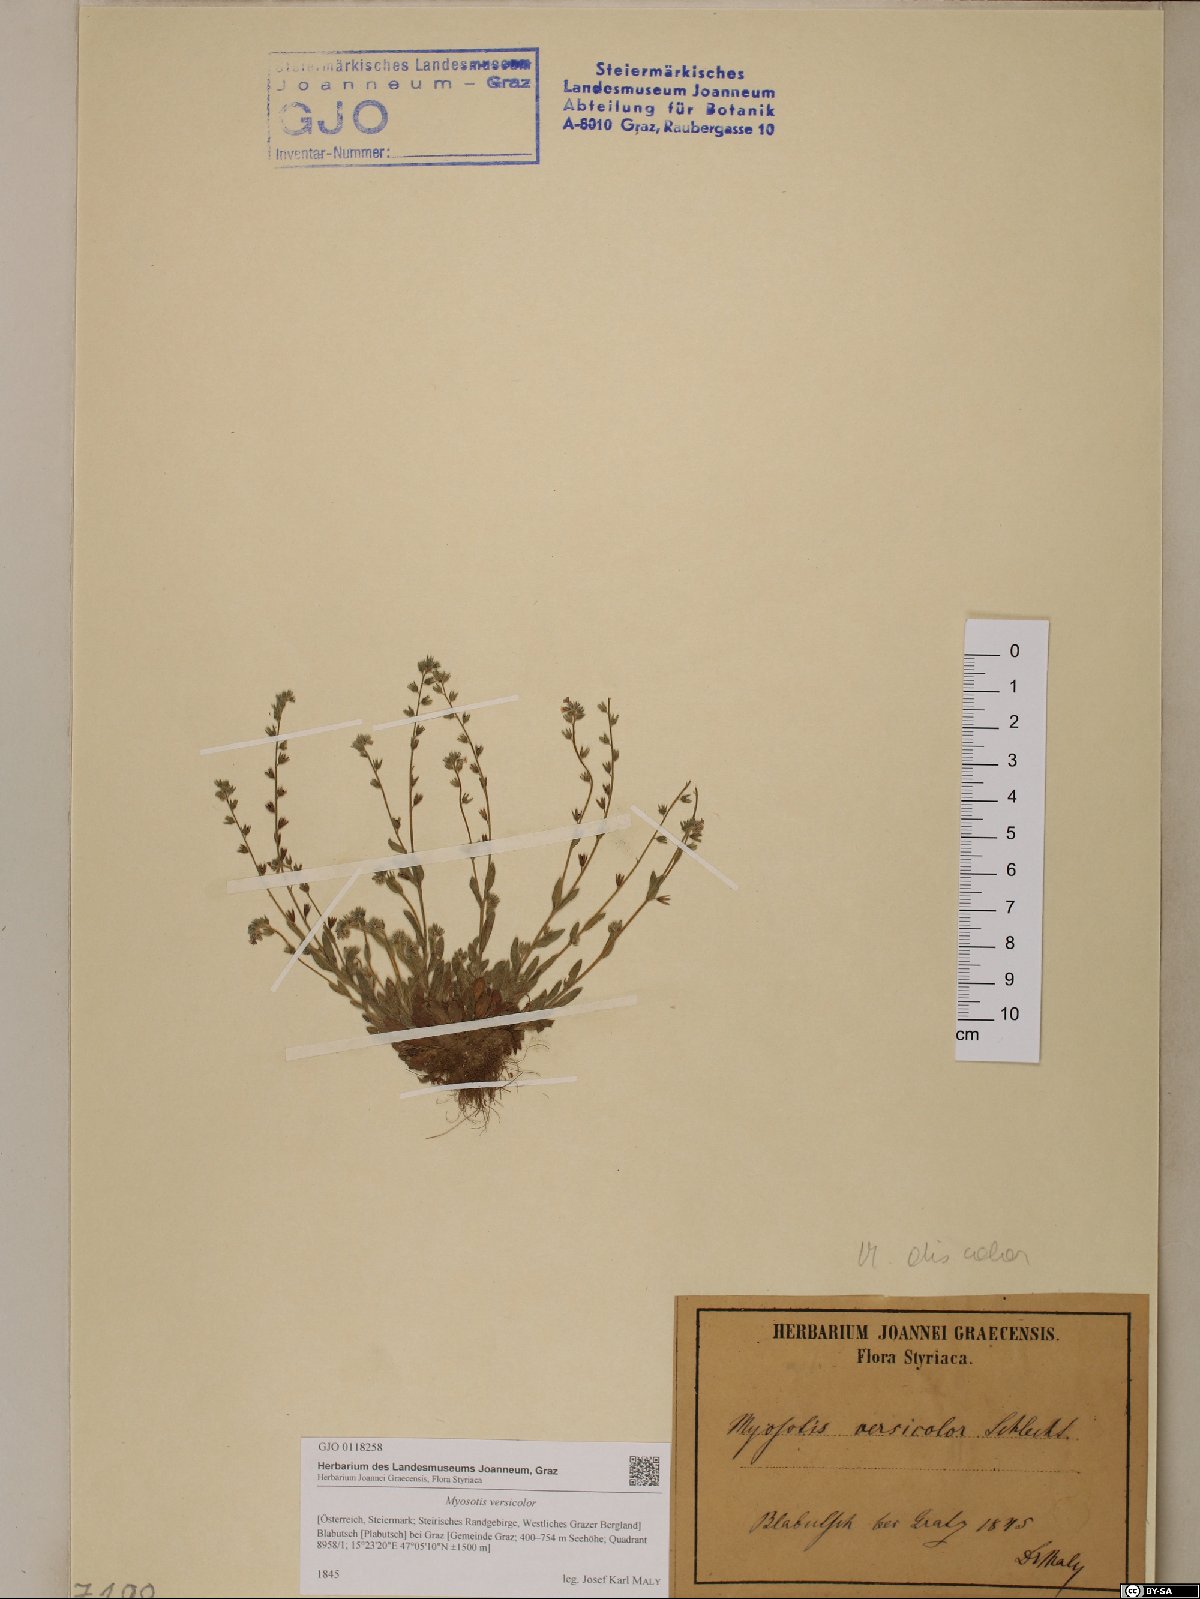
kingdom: Plantae
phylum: Tracheophyta
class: Magnoliopsida
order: Boraginales
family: Boraginaceae
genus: Myosotis
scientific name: Myosotis discolor
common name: Changing forget-me-not
